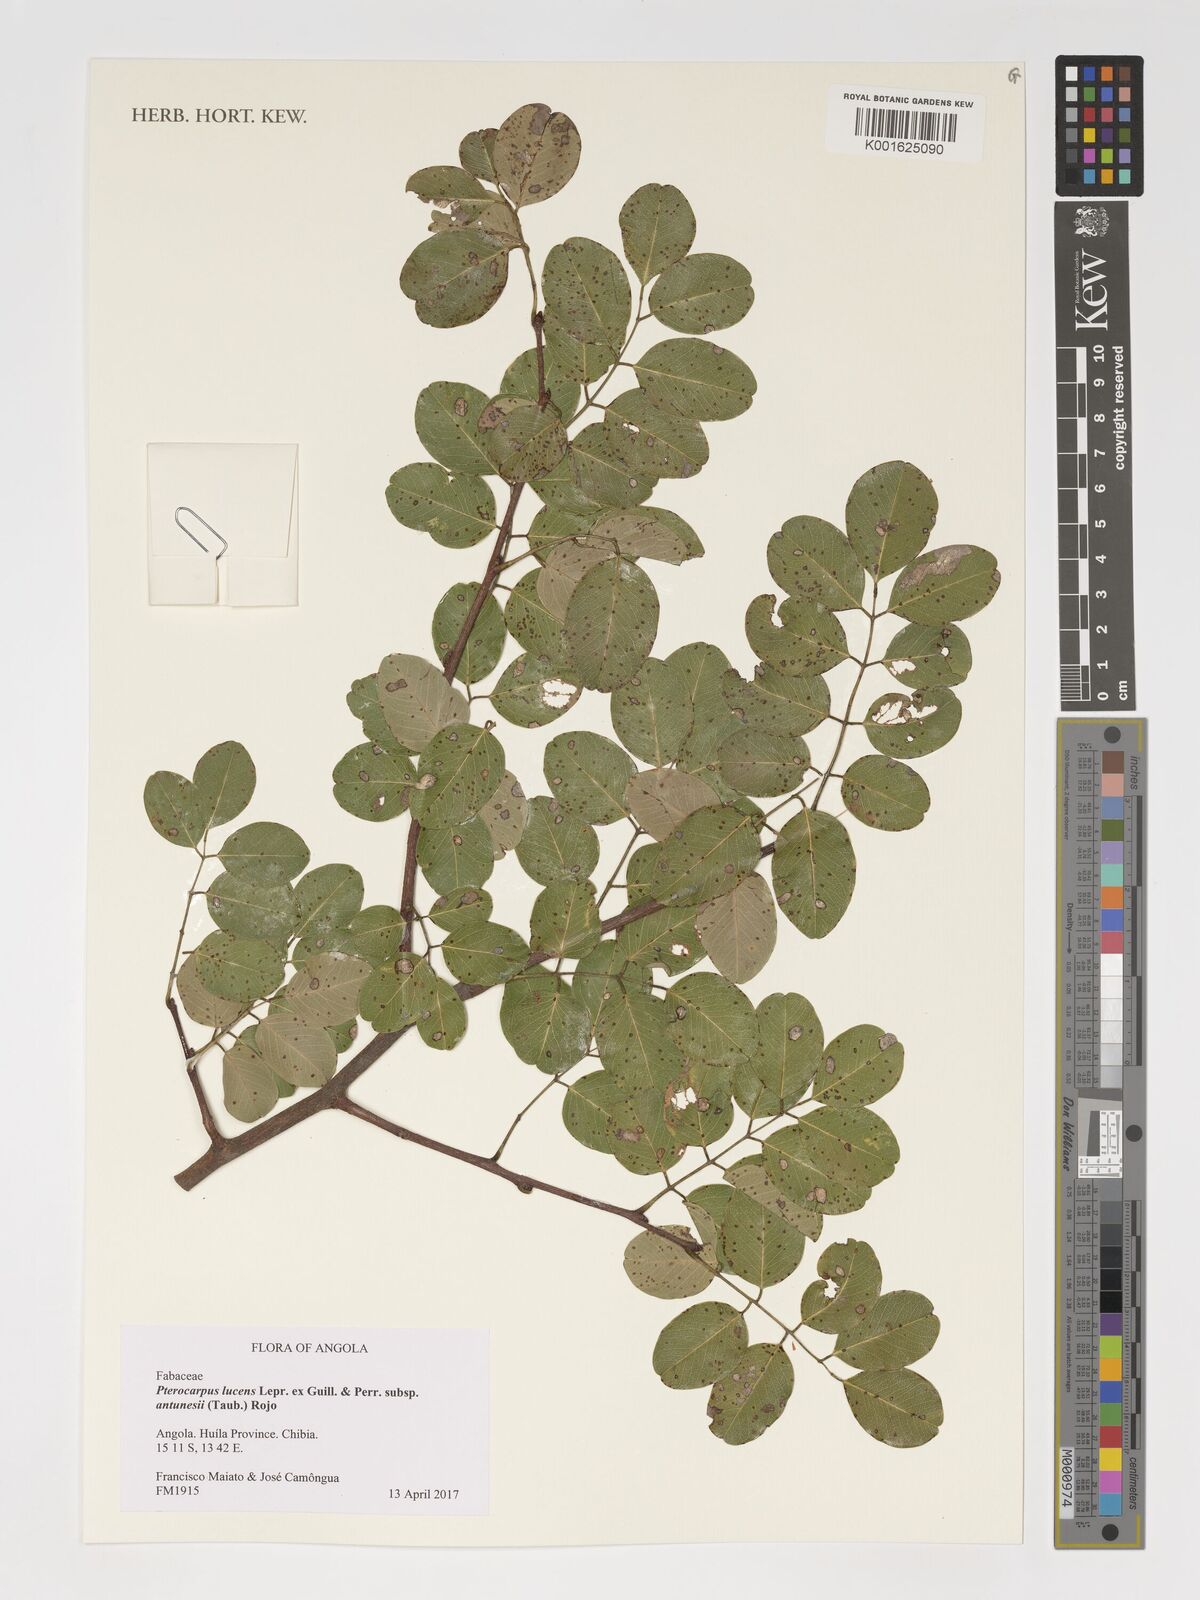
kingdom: Plantae
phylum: Tracheophyta
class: Magnoliopsida
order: Fabales
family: Fabaceae
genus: Pterocarpus
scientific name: Pterocarpus lucens
